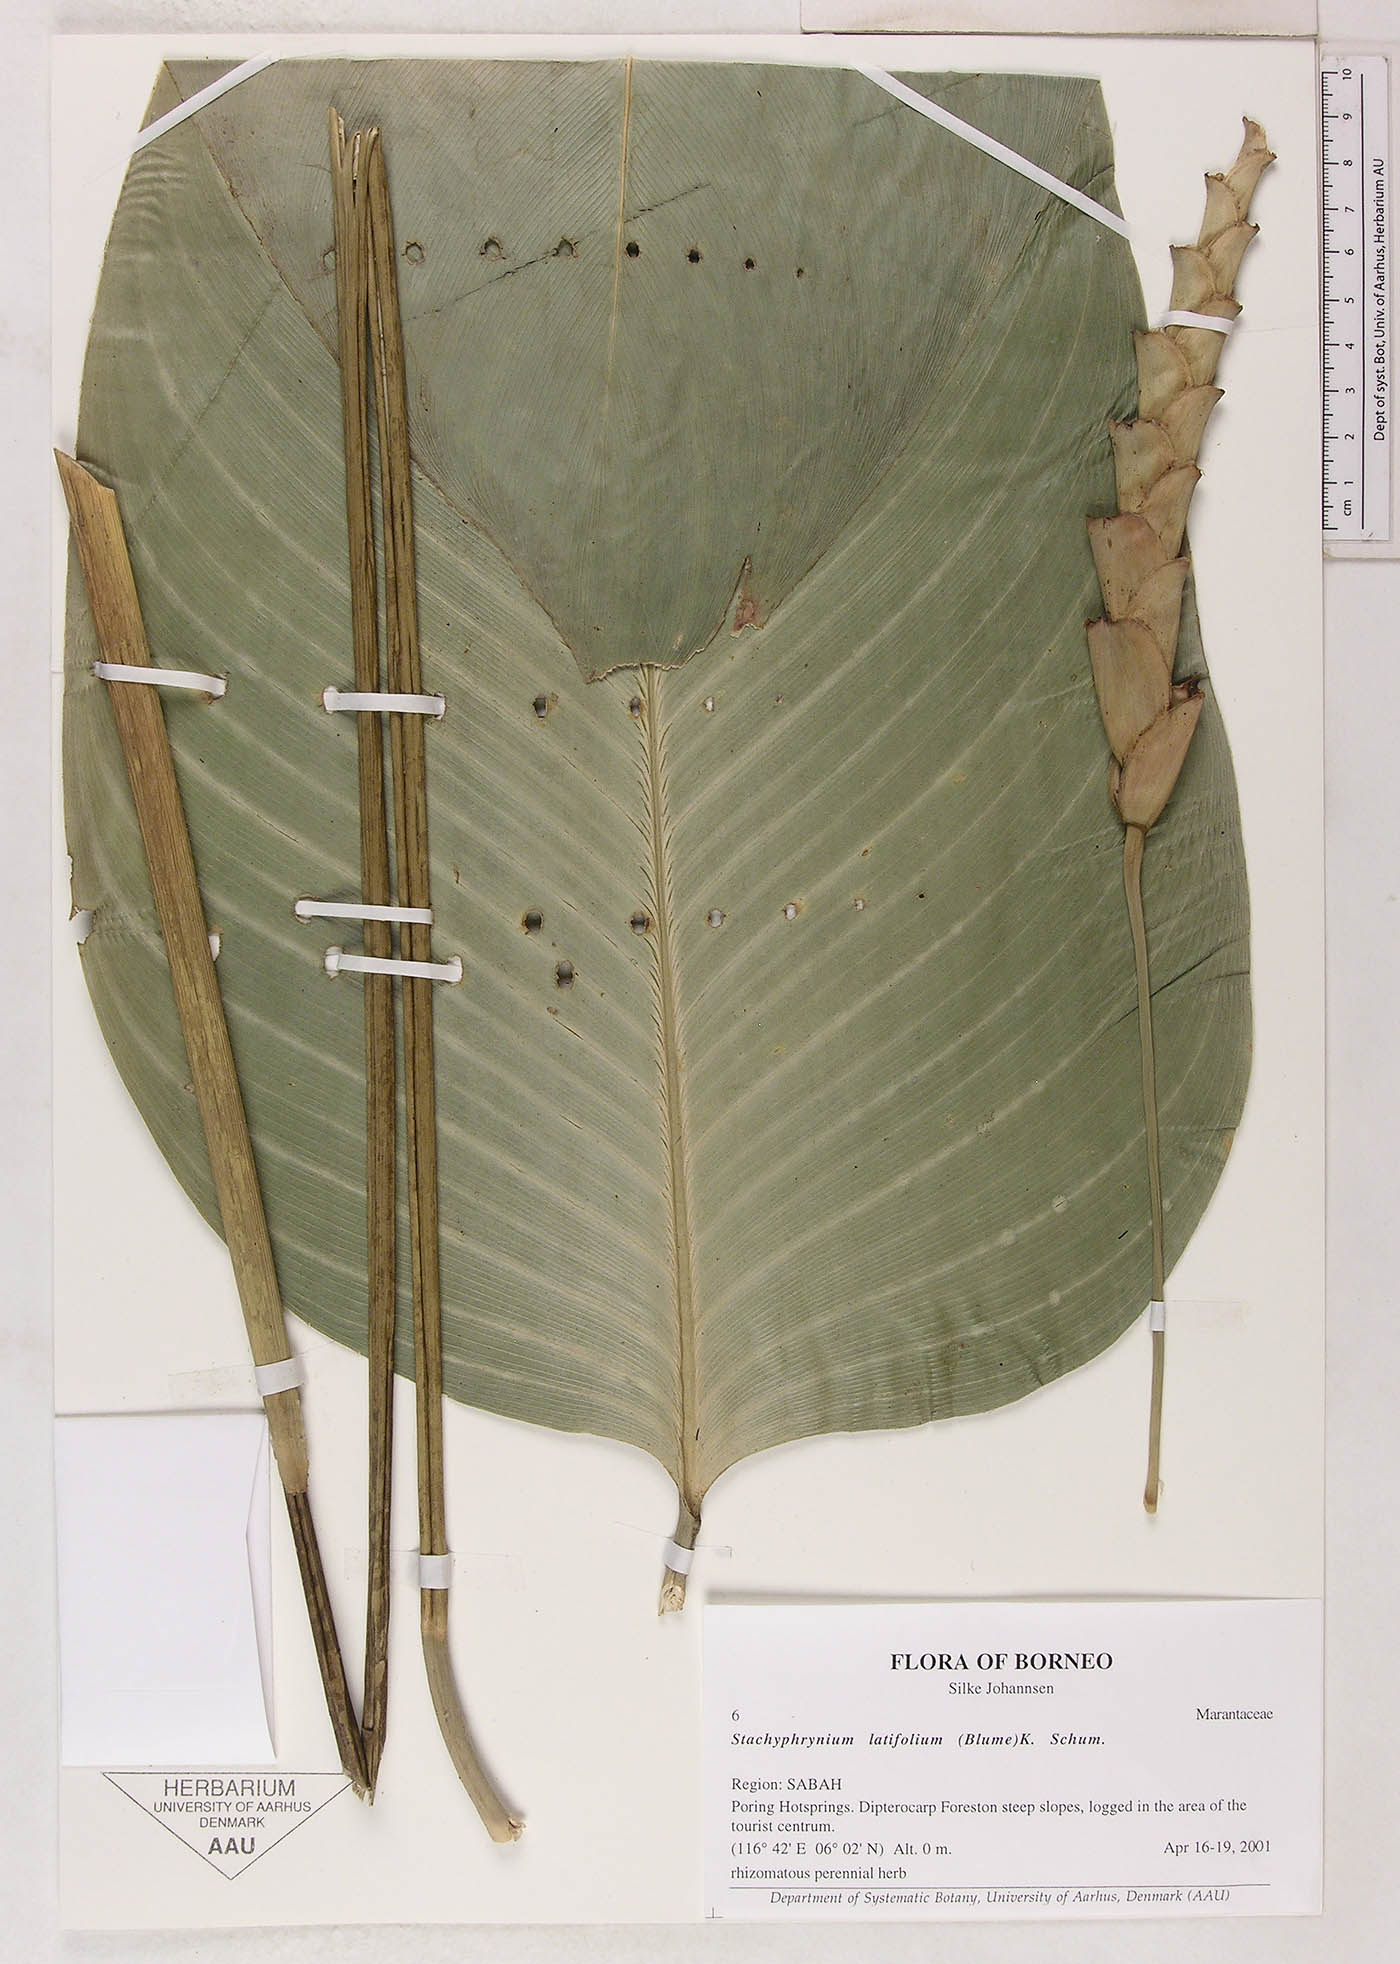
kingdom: Plantae
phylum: Tracheophyta
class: Liliopsida
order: Zingiberales
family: Marantaceae
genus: Stachyphrynium
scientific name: Stachyphrynium latifolium
